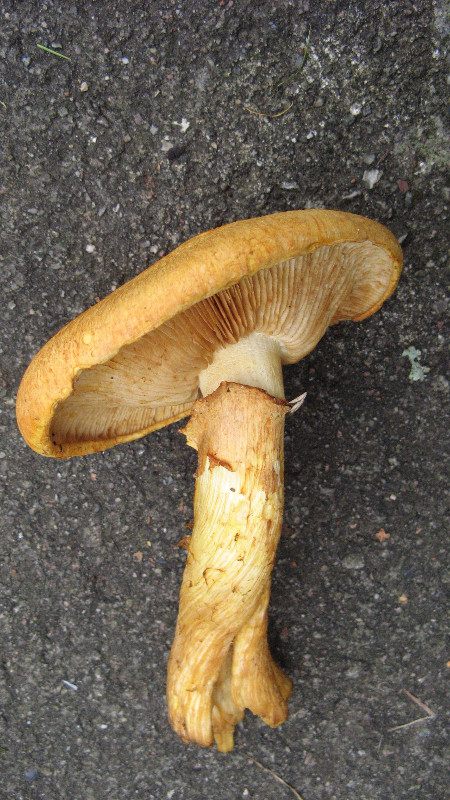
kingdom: Fungi
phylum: Basidiomycota
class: Agaricomycetes
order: Agaricales
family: Hymenogastraceae
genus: Gymnopilus
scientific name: Gymnopilus spectabilis
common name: fibret flammehat
